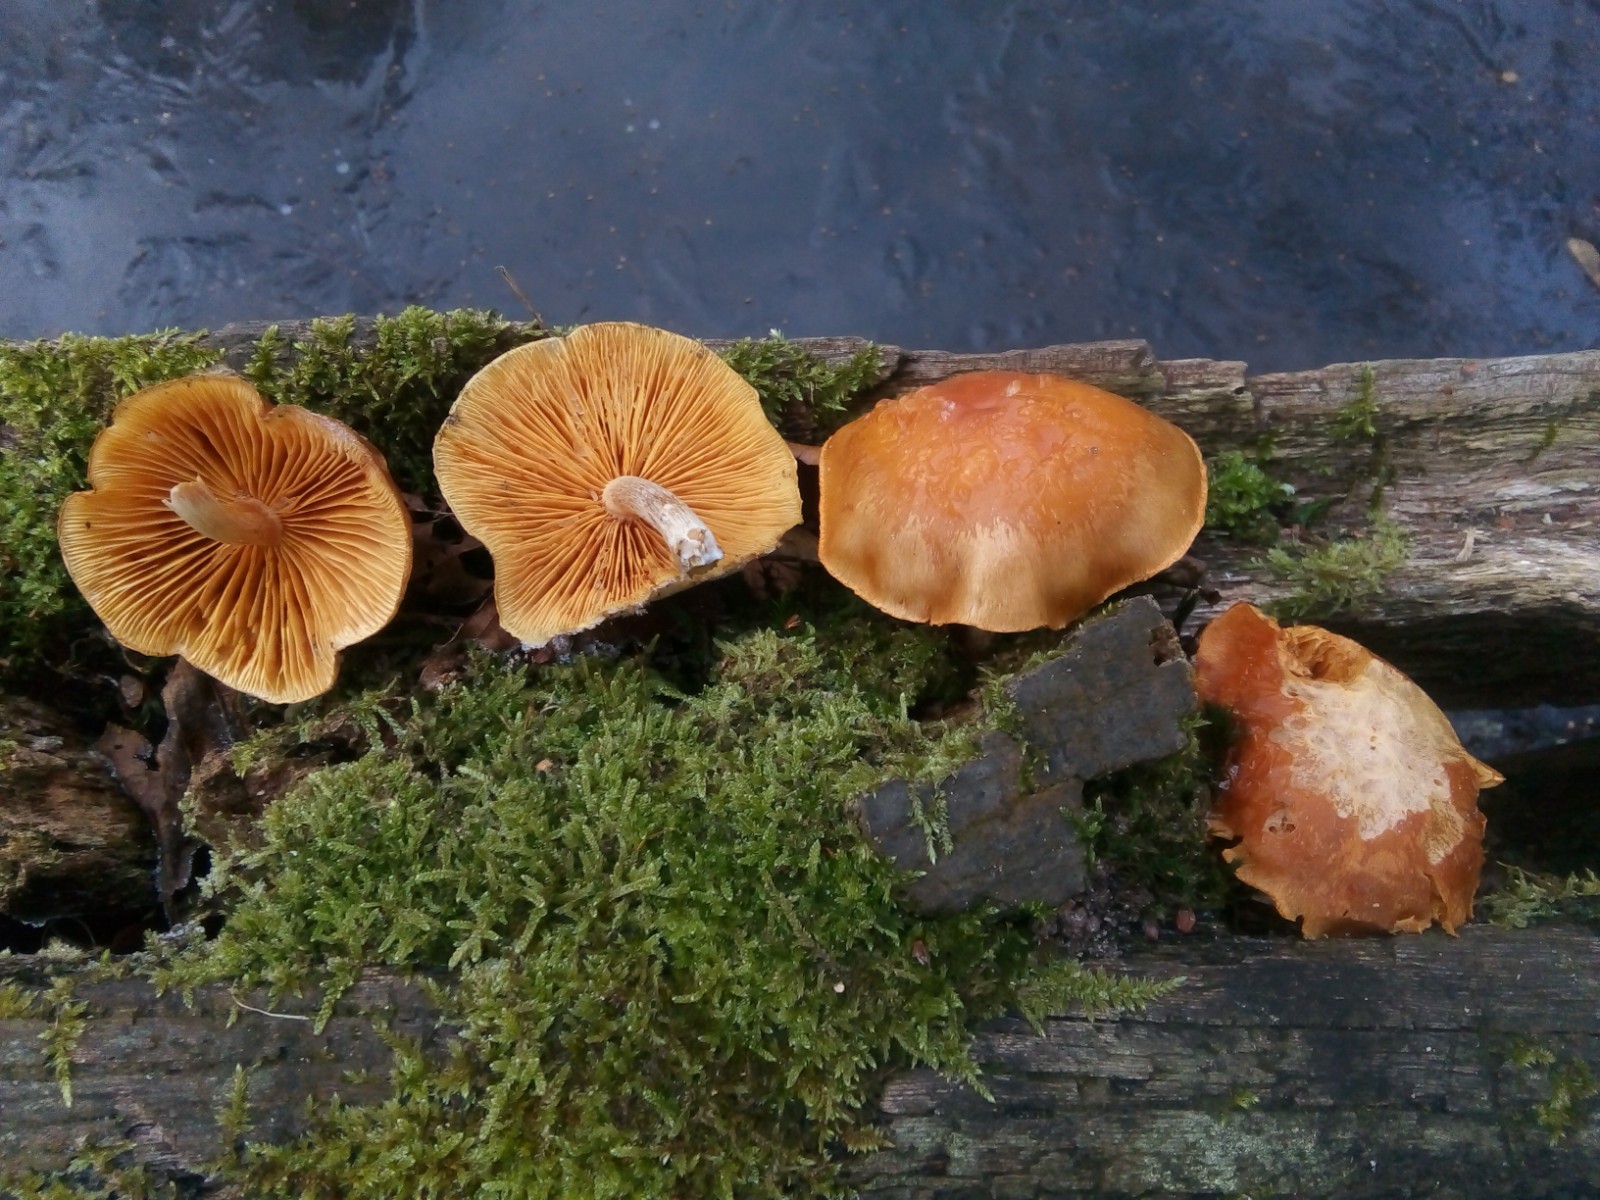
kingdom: Fungi
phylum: Basidiomycota
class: Agaricomycetes
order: Agaricales
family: Hymenogastraceae
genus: Gymnopilus
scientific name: Gymnopilus penetrans
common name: plettet flammehat
